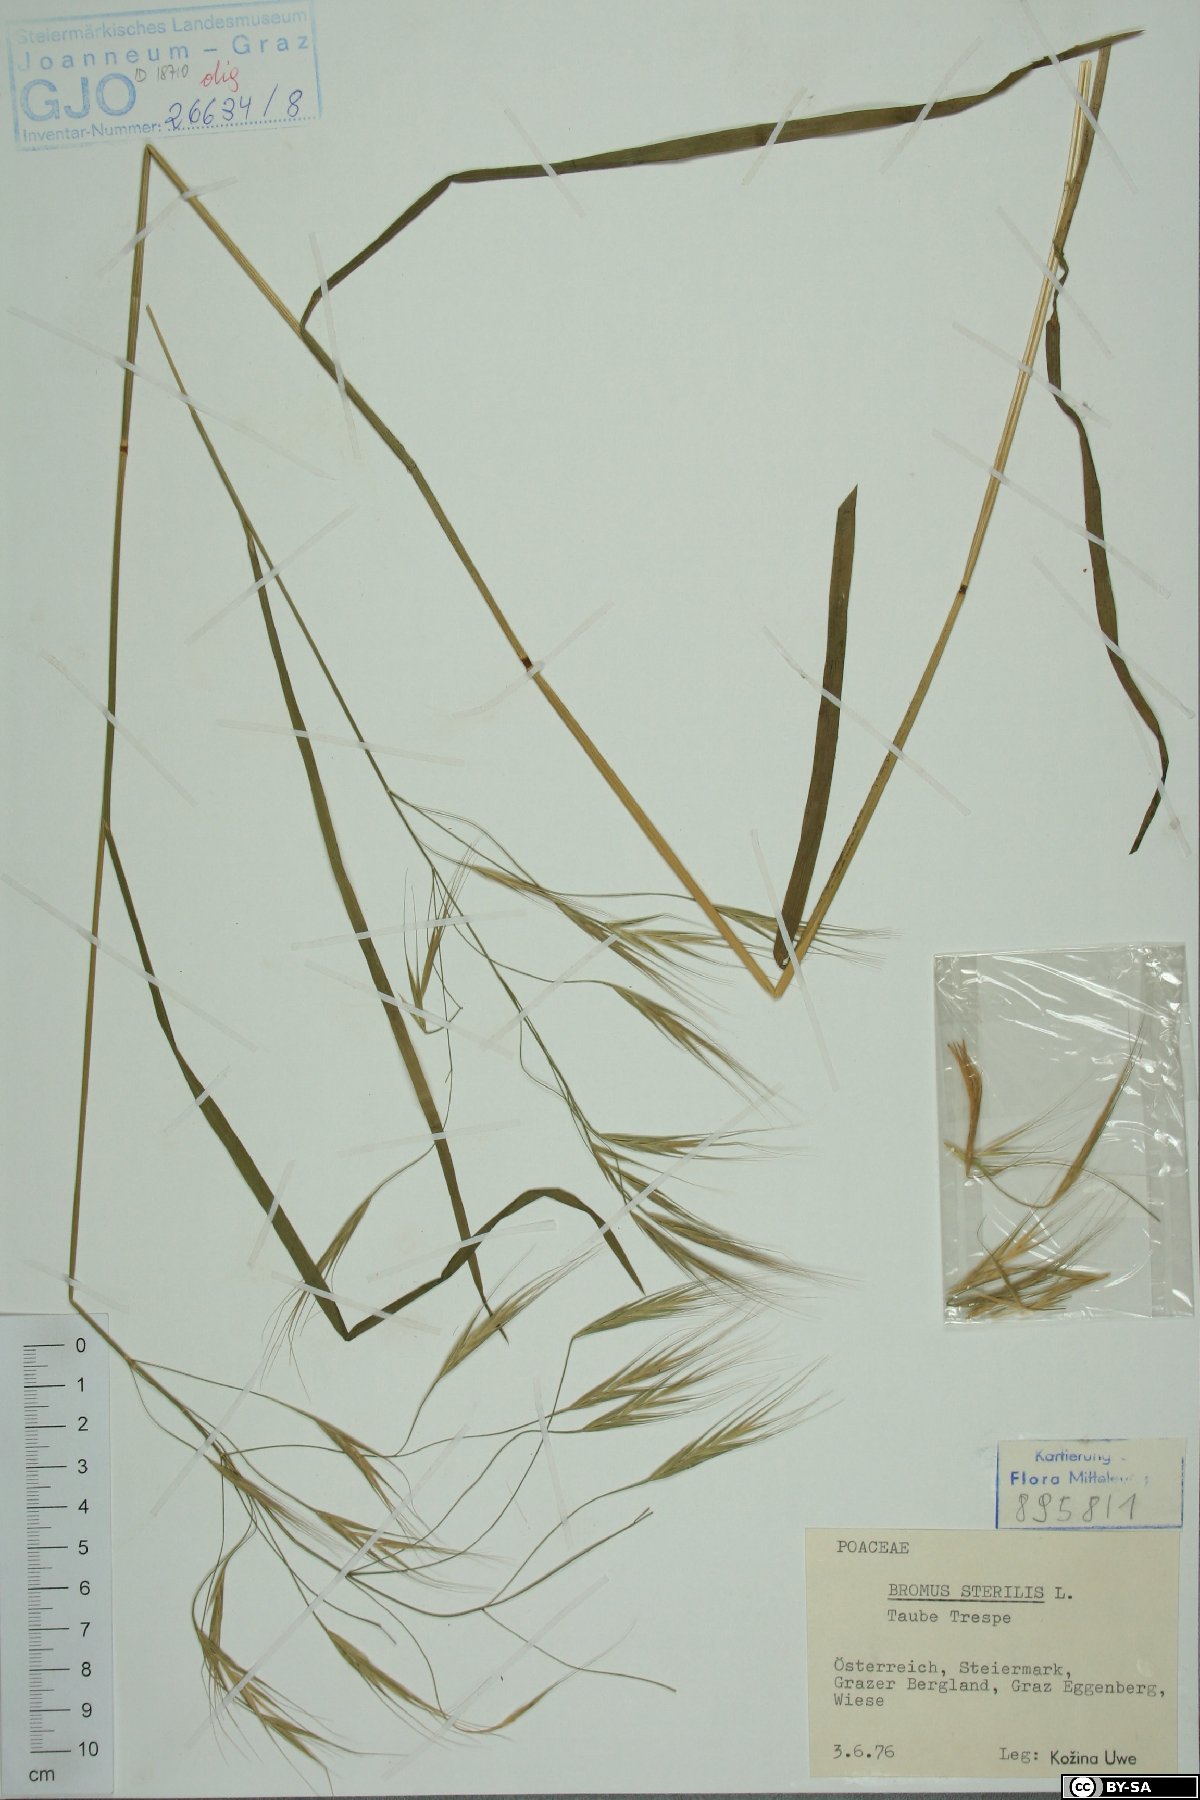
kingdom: Plantae
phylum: Tracheophyta
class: Liliopsida
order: Poales
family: Poaceae
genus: Bromus
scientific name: Bromus sterilis
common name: Poverty brome
